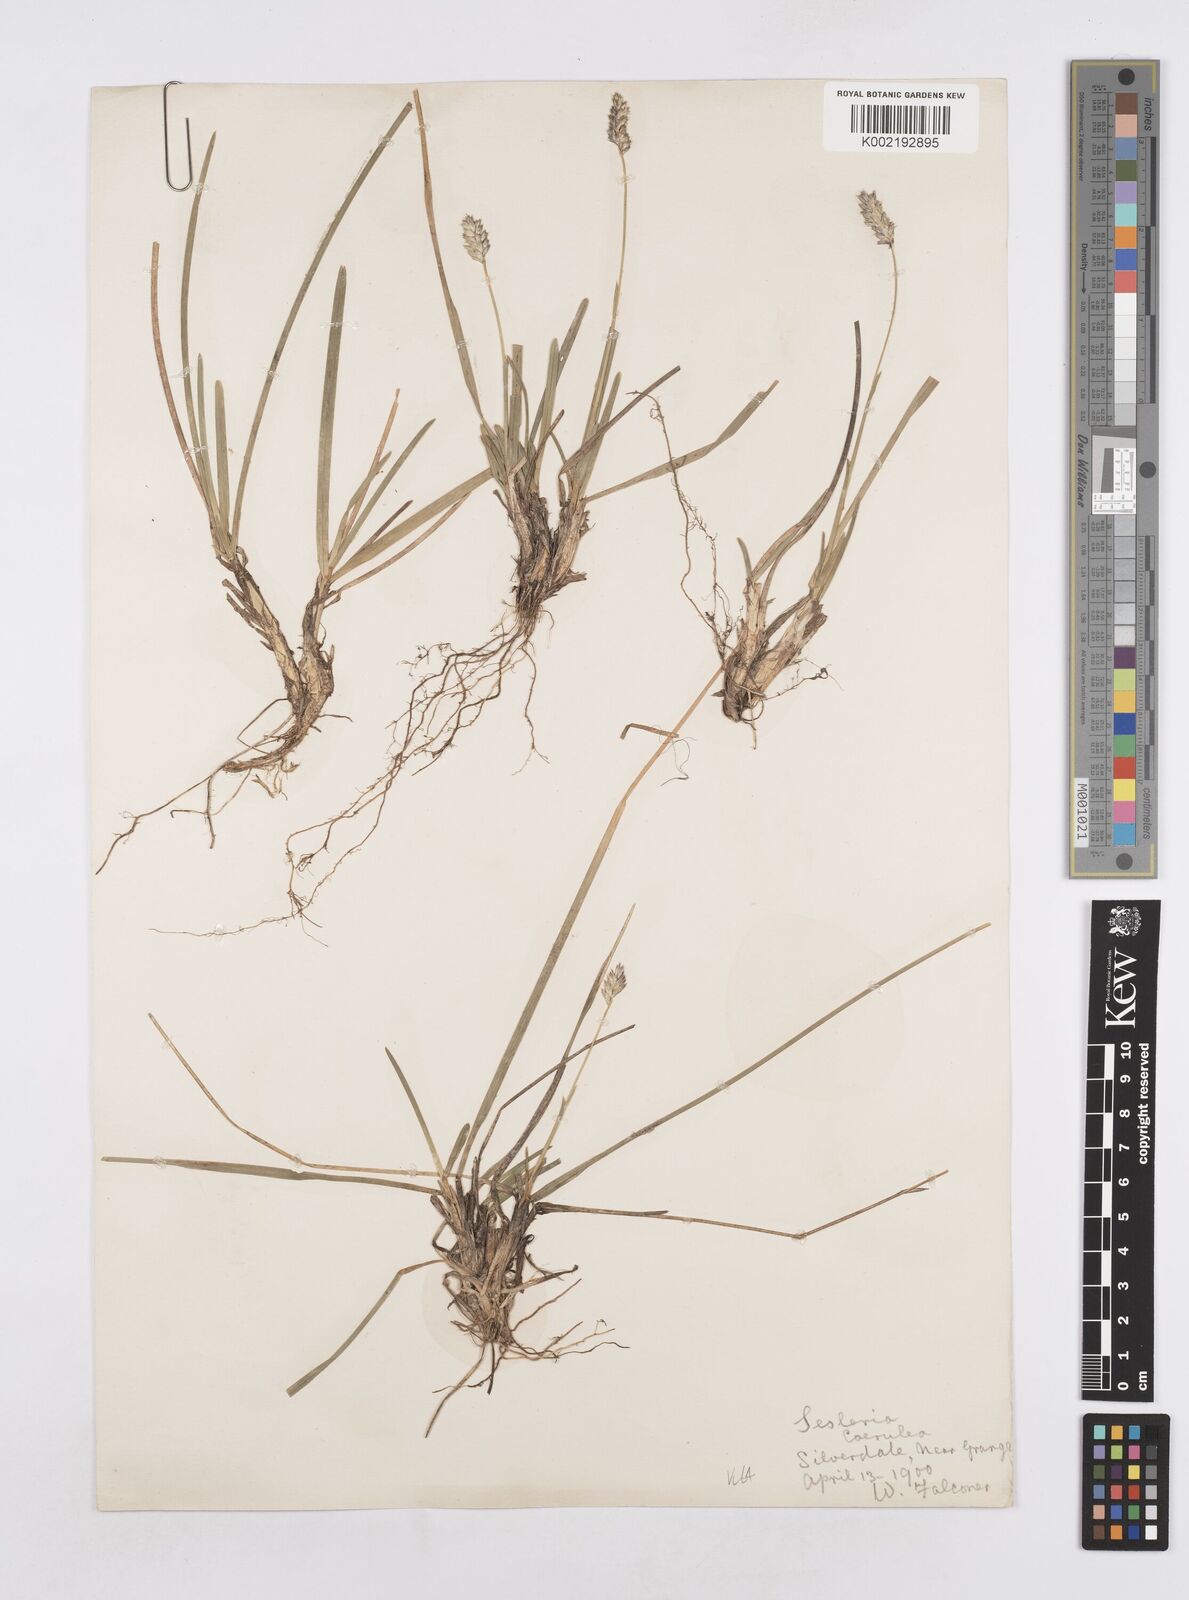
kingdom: Plantae
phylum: Tracheophyta
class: Liliopsida
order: Poales
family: Poaceae
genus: Sesleria
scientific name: Sesleria caerulea
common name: Blue moor-grass
